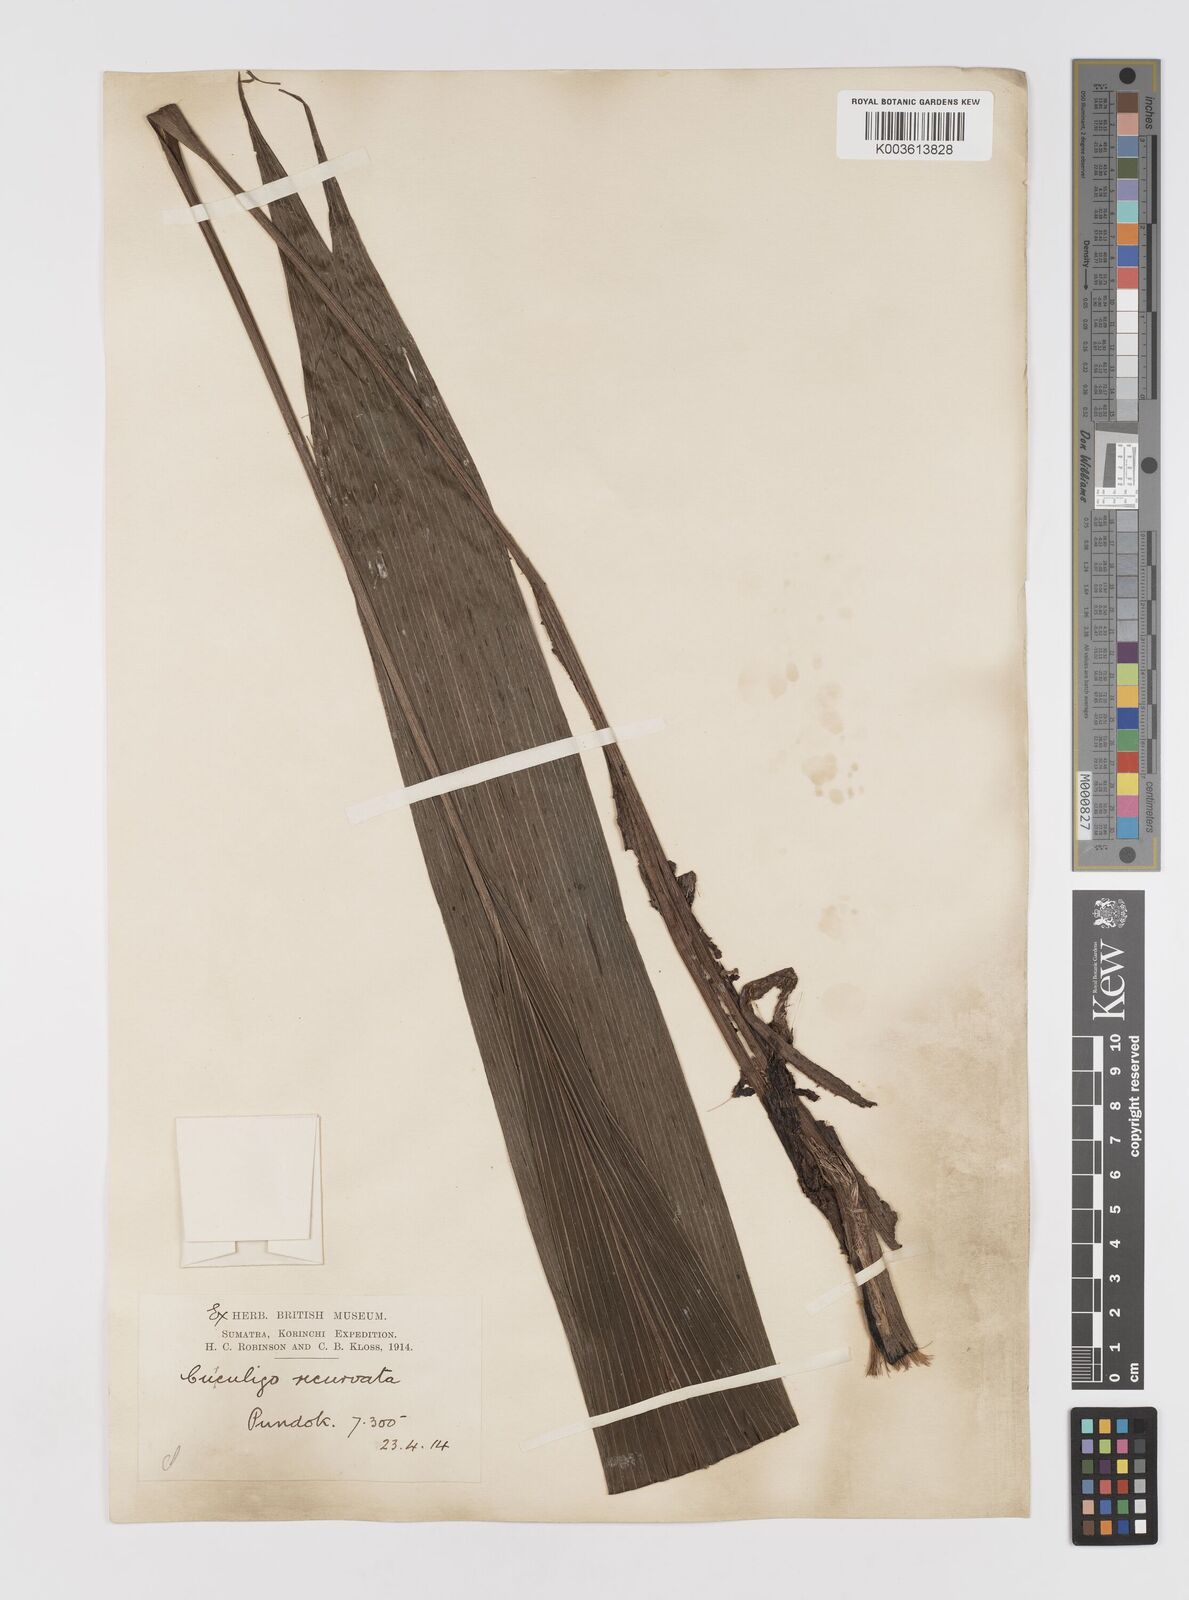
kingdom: Plantae
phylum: Tracheophyta
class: Liliopsida
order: Asparagales
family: Hypoxidaceae
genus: Curculigo
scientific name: Curculigo capitulata
